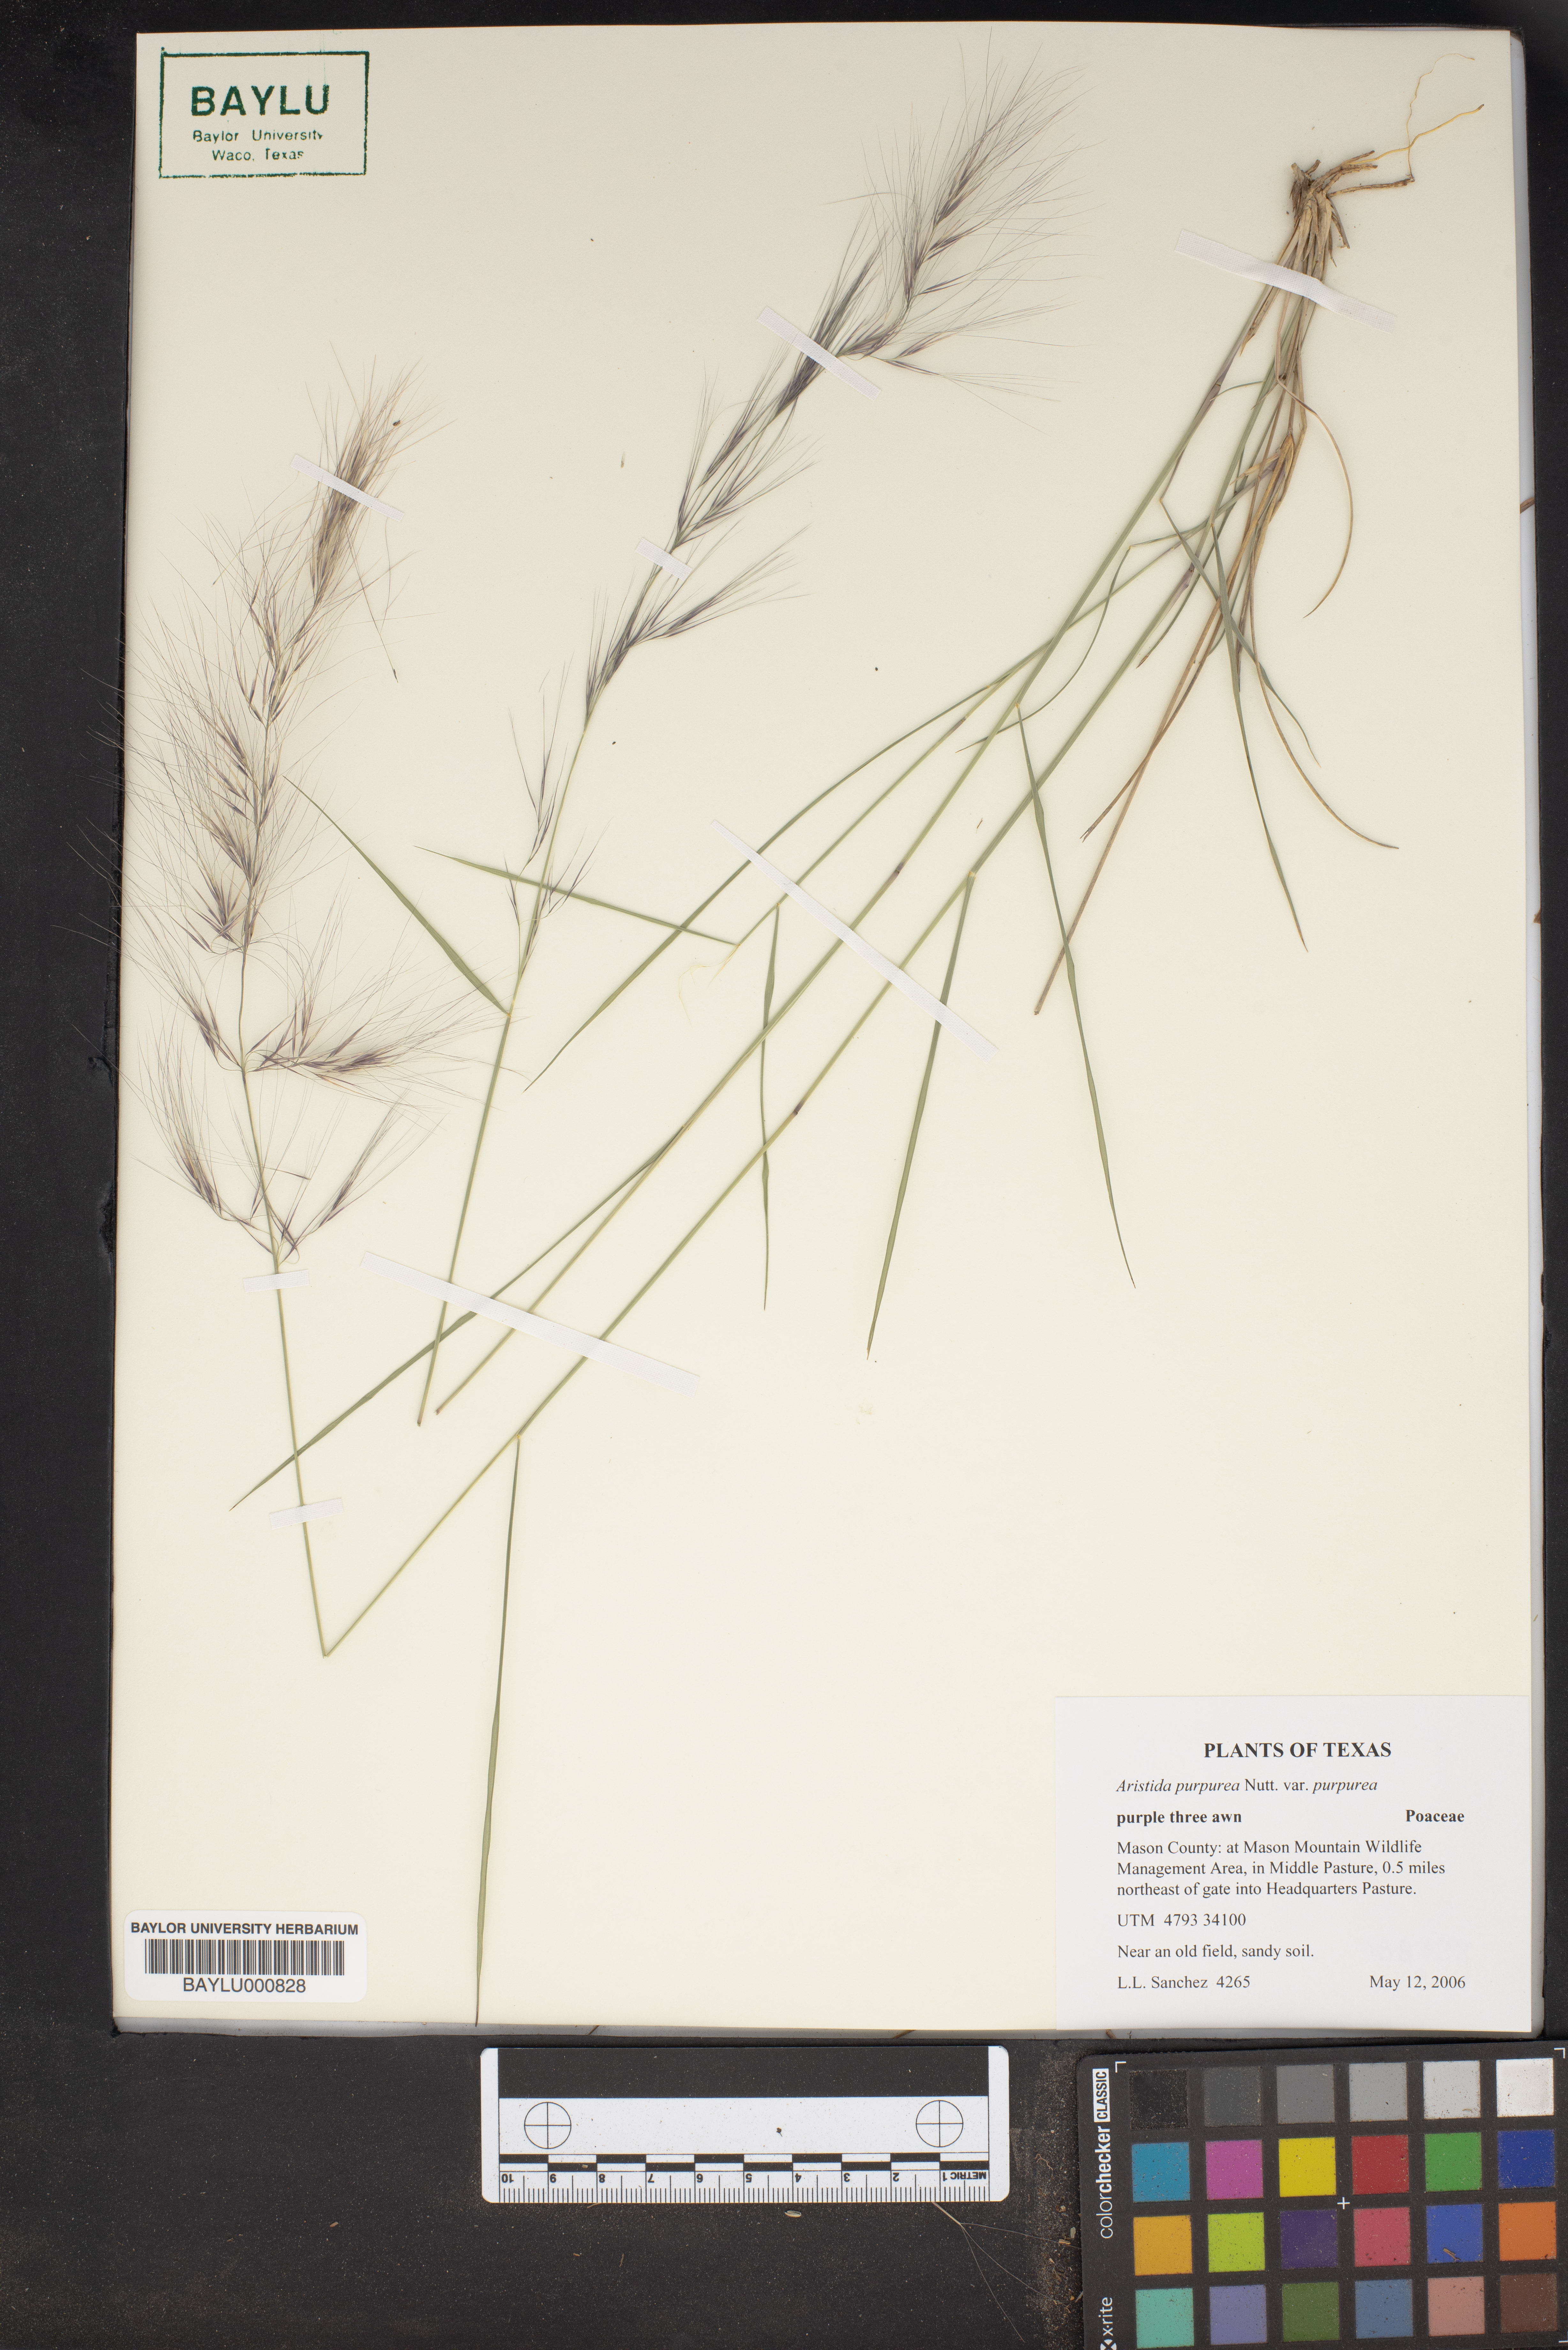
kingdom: Plantae
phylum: Tracheophyta
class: Liliopsida
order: Poales
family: Poaceae
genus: Aristida
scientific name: Aristida purpurea
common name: Purple threeawn
